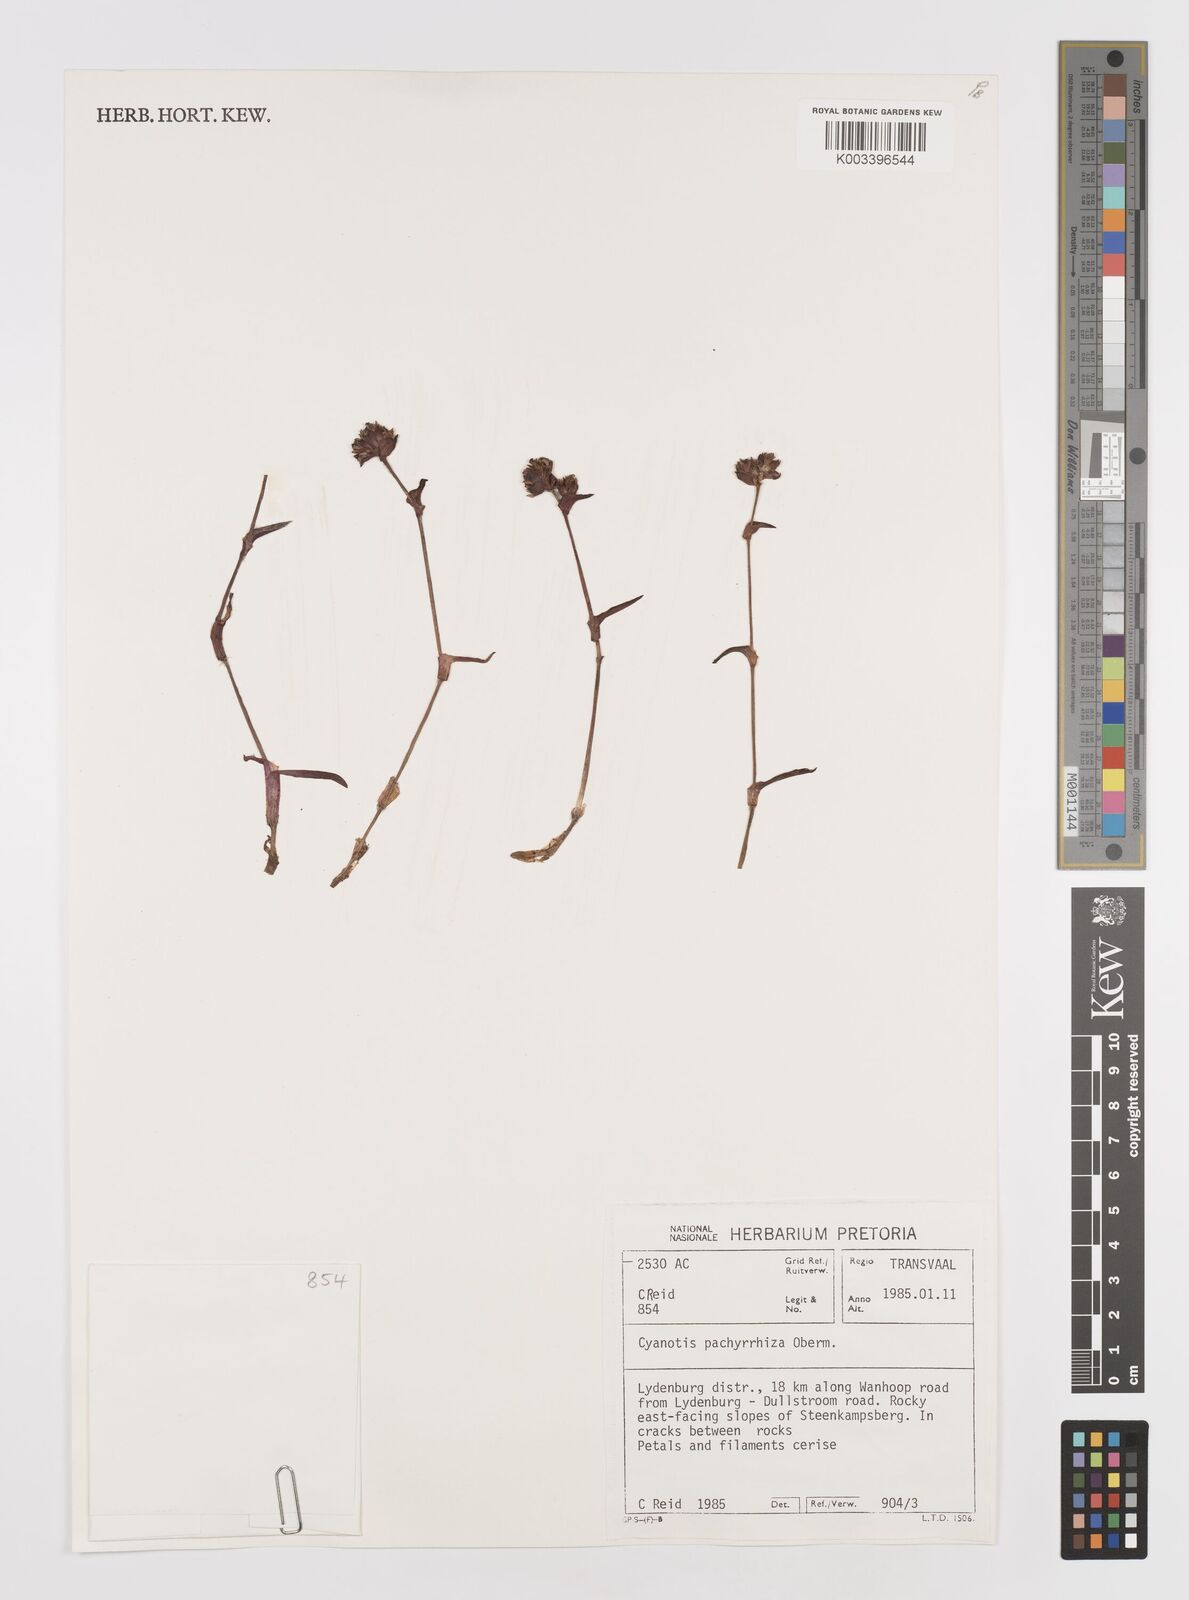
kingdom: Plantae
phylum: Tracheophyta
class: Liliopsida
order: Commelinales
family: Commelinaceae
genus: Cyanotis
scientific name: Cyanotis pachyrrhiza
